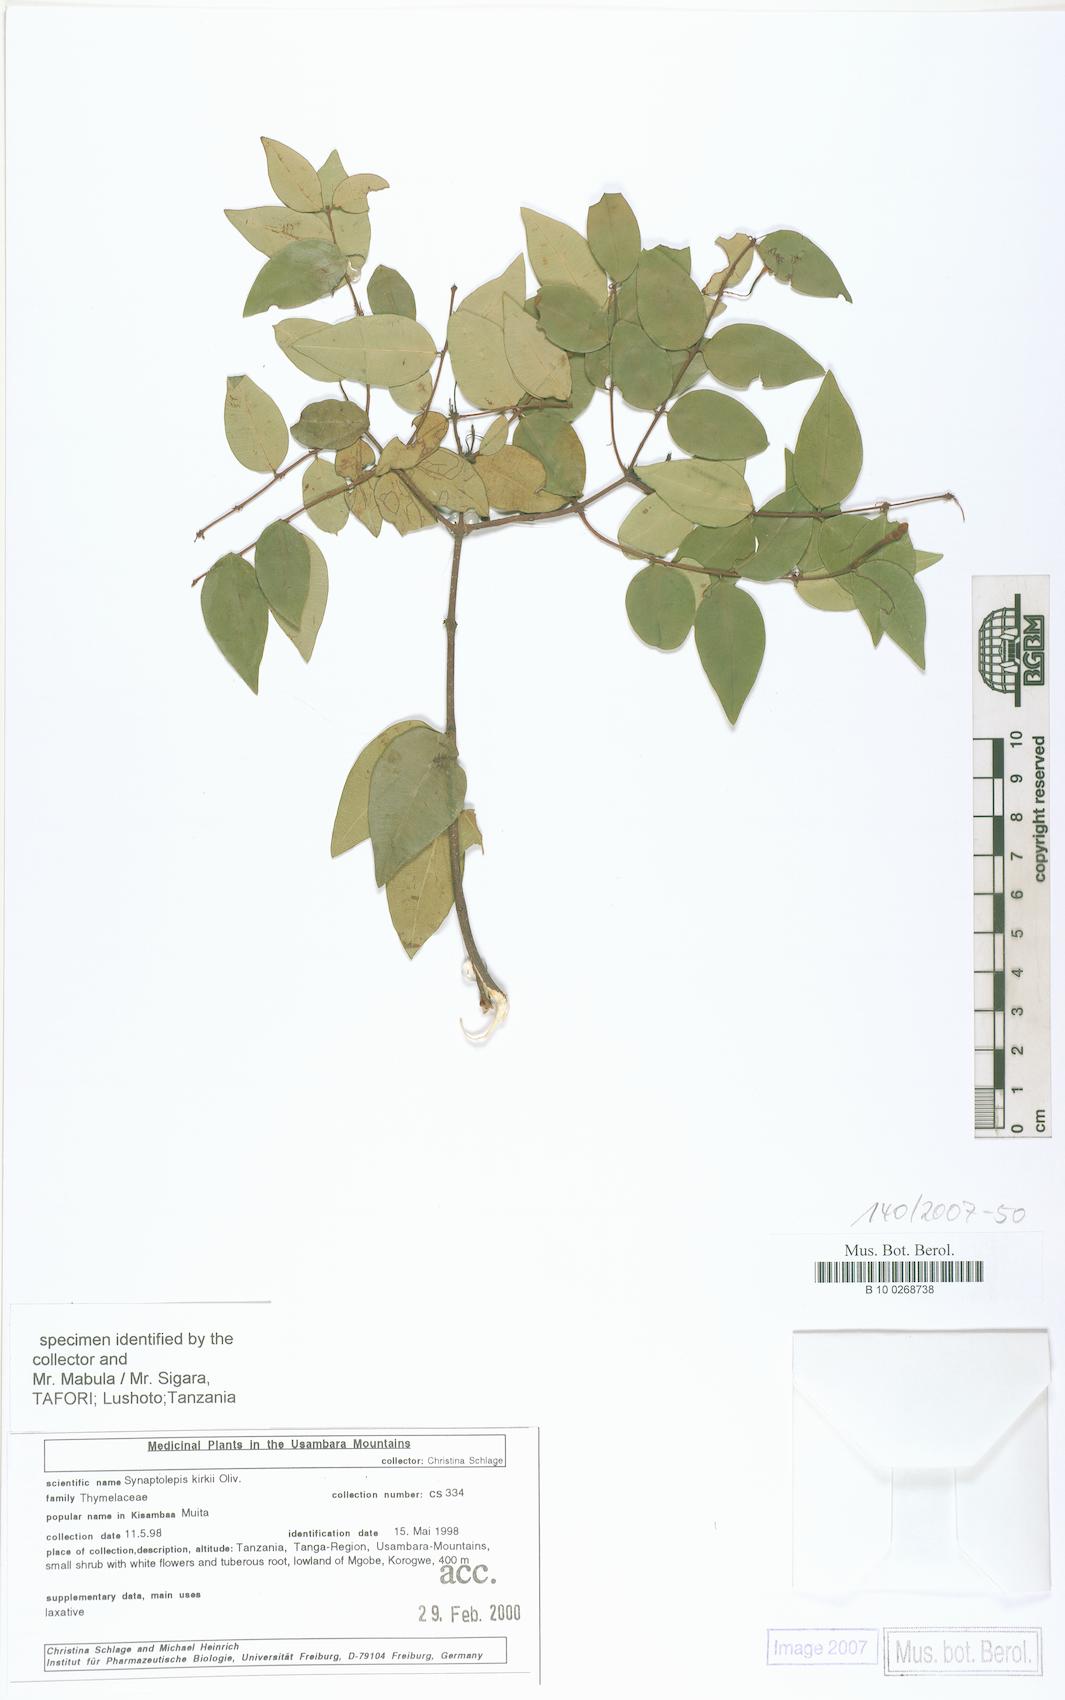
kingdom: Plantae
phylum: Tracheophyta
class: Magnoliopsida
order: Malvales
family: Thymelaeaceae
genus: Synaptolepis
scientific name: Synaptolepis kirkii
